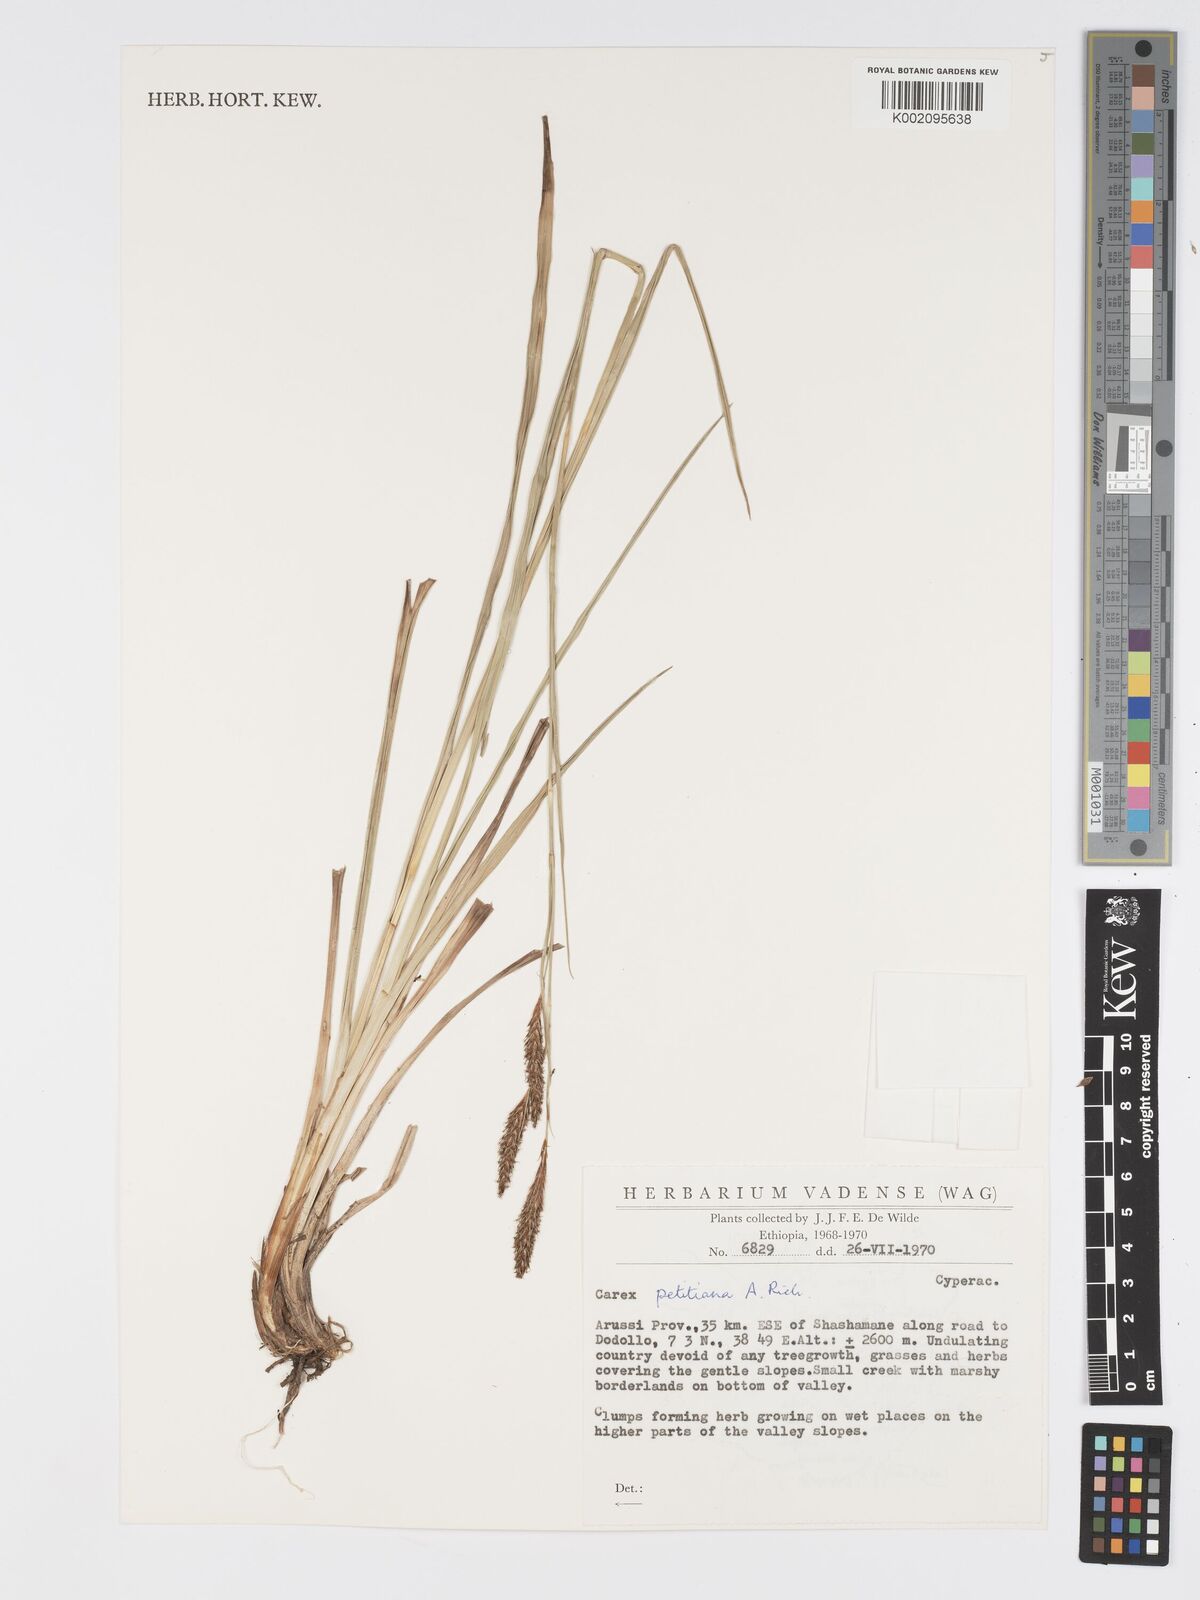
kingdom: Plantae
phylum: Tracheophyta
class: Liliopsida
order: Poales
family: Cyperaceae
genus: Carex
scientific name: Carex petitiana
